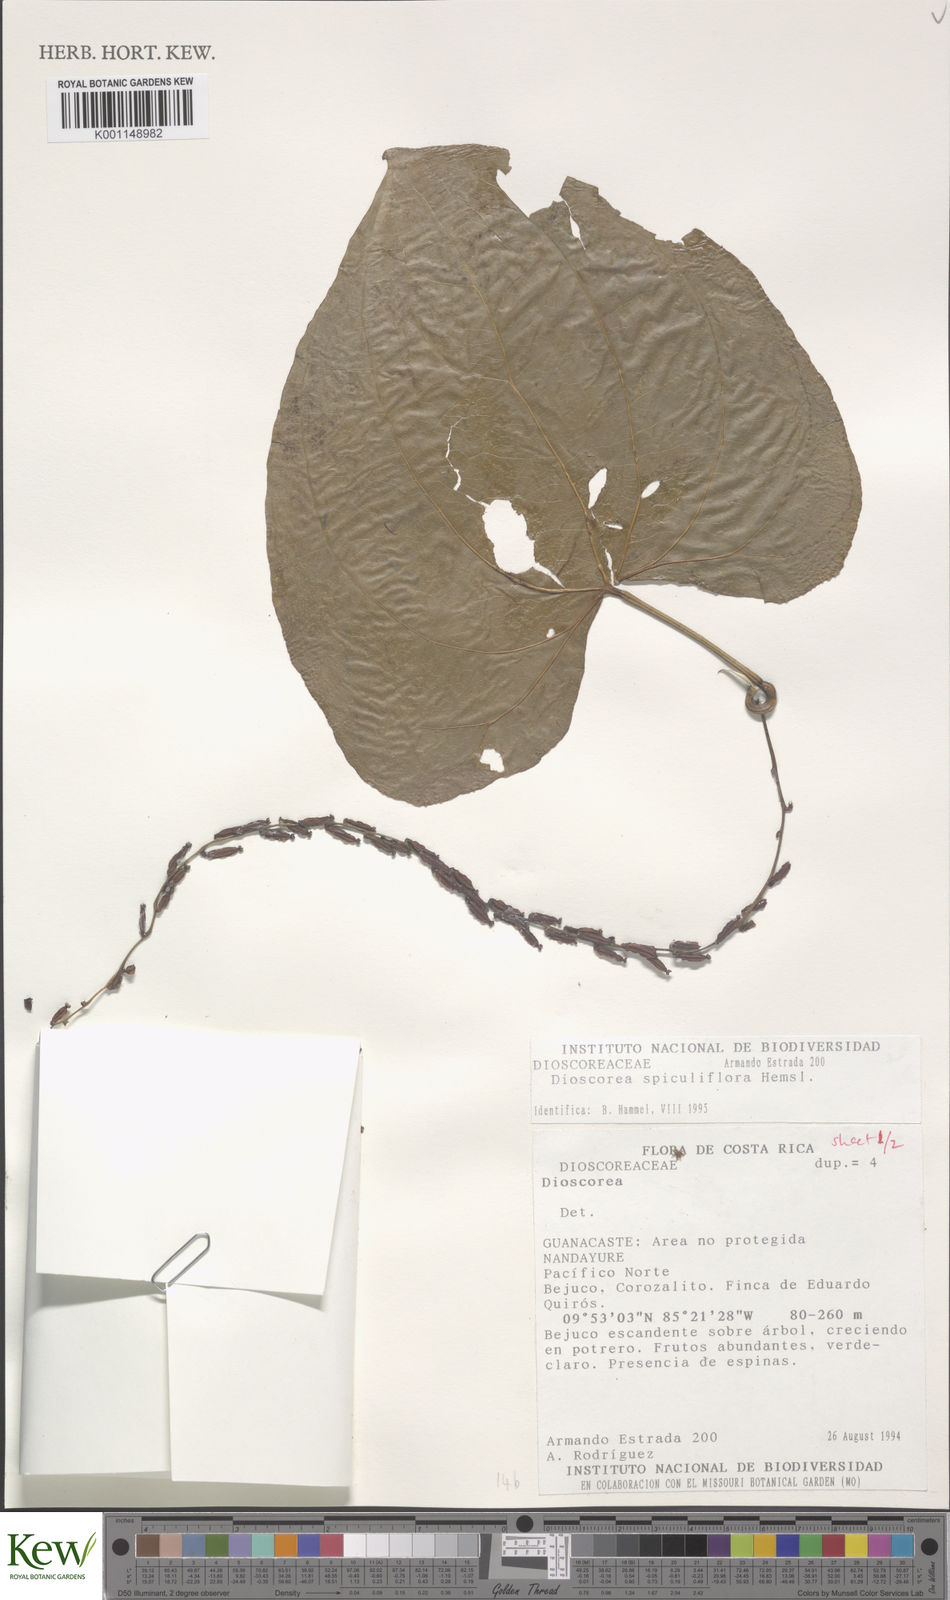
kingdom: Plantae
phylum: Tracheophyta
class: Liliopsida
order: Dioscoreales
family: Dioscoreaceae
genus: Dioscorea
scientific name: Dioscorea spiculiflora
